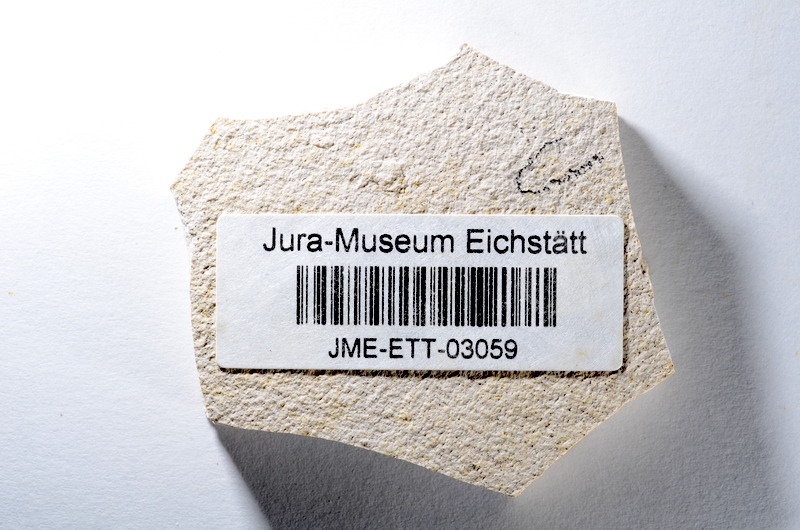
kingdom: Animalia
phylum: Chordata
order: Salmoniformes
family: Orthogonikleithridae
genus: Orthogonikleithrus
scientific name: Orthogonikleithrus hoelli
